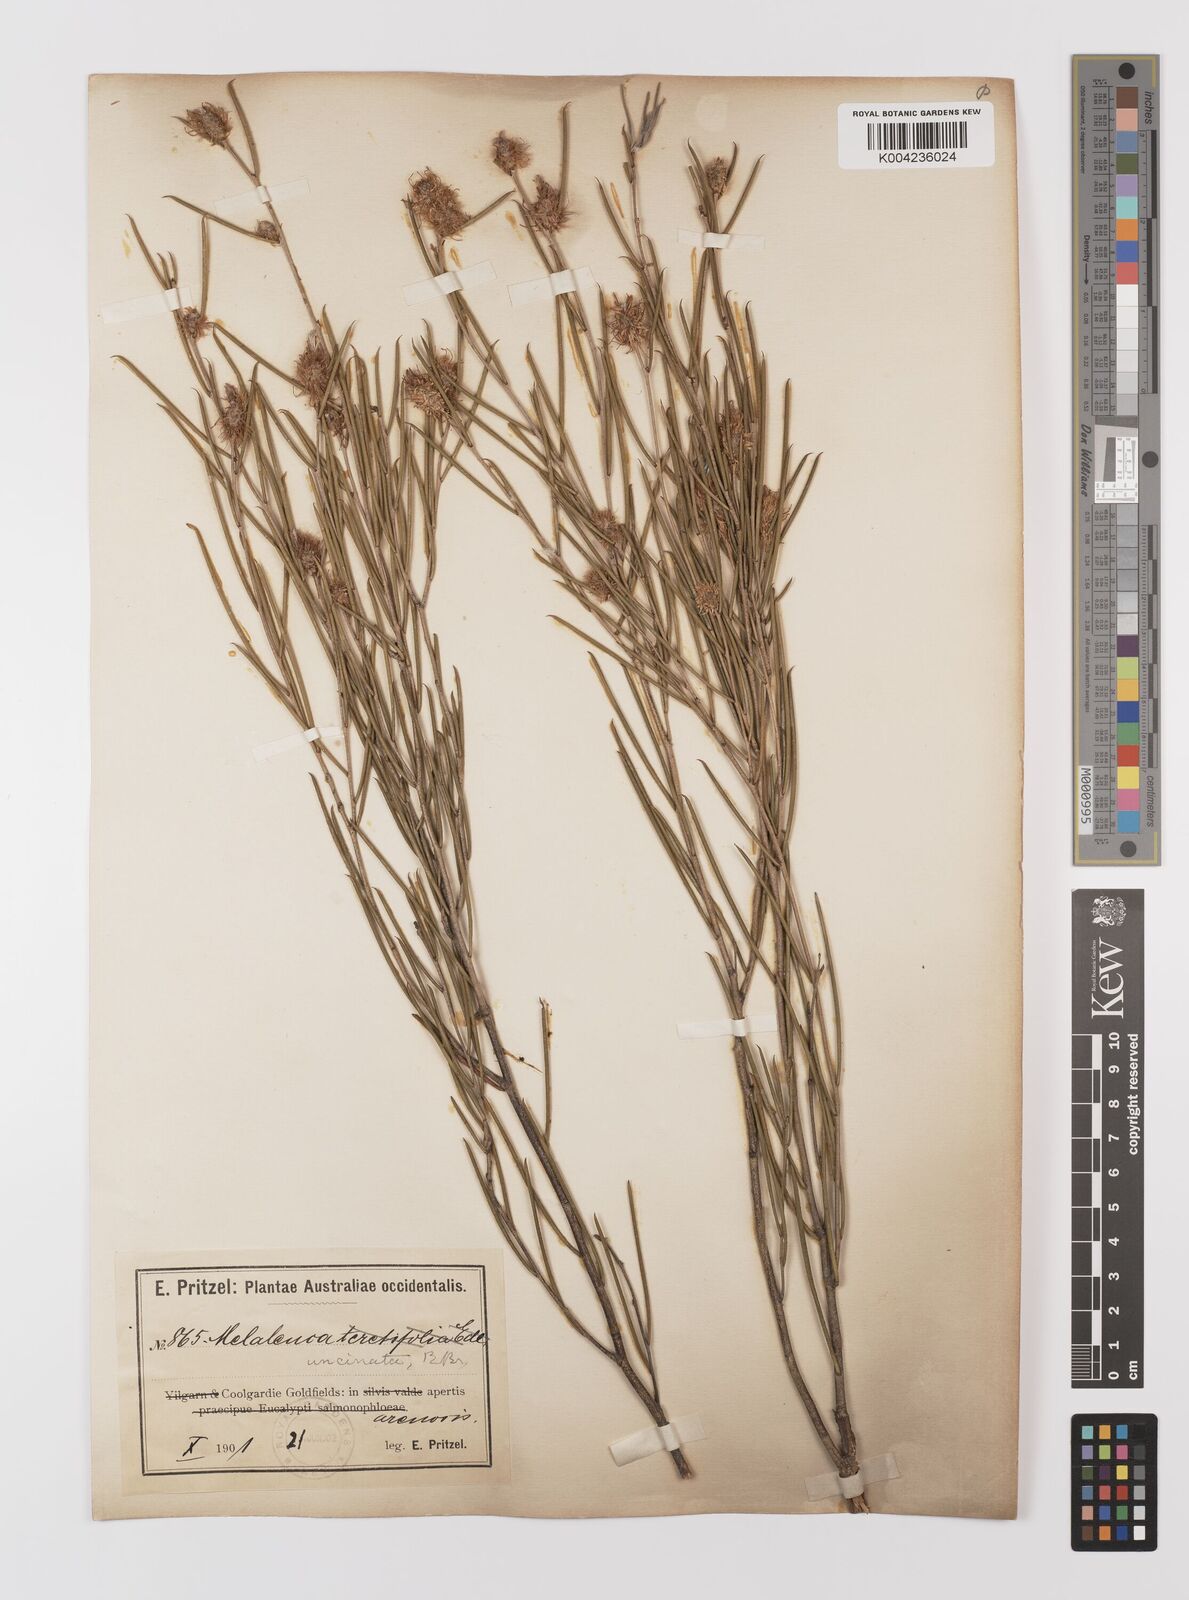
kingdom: Plantae
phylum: Tracheophyta
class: Magnoliopsida
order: Myrtales
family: Myrtaceae
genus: Melaleuca
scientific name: Melaleuca uncinata
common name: Broom honey myrtle
